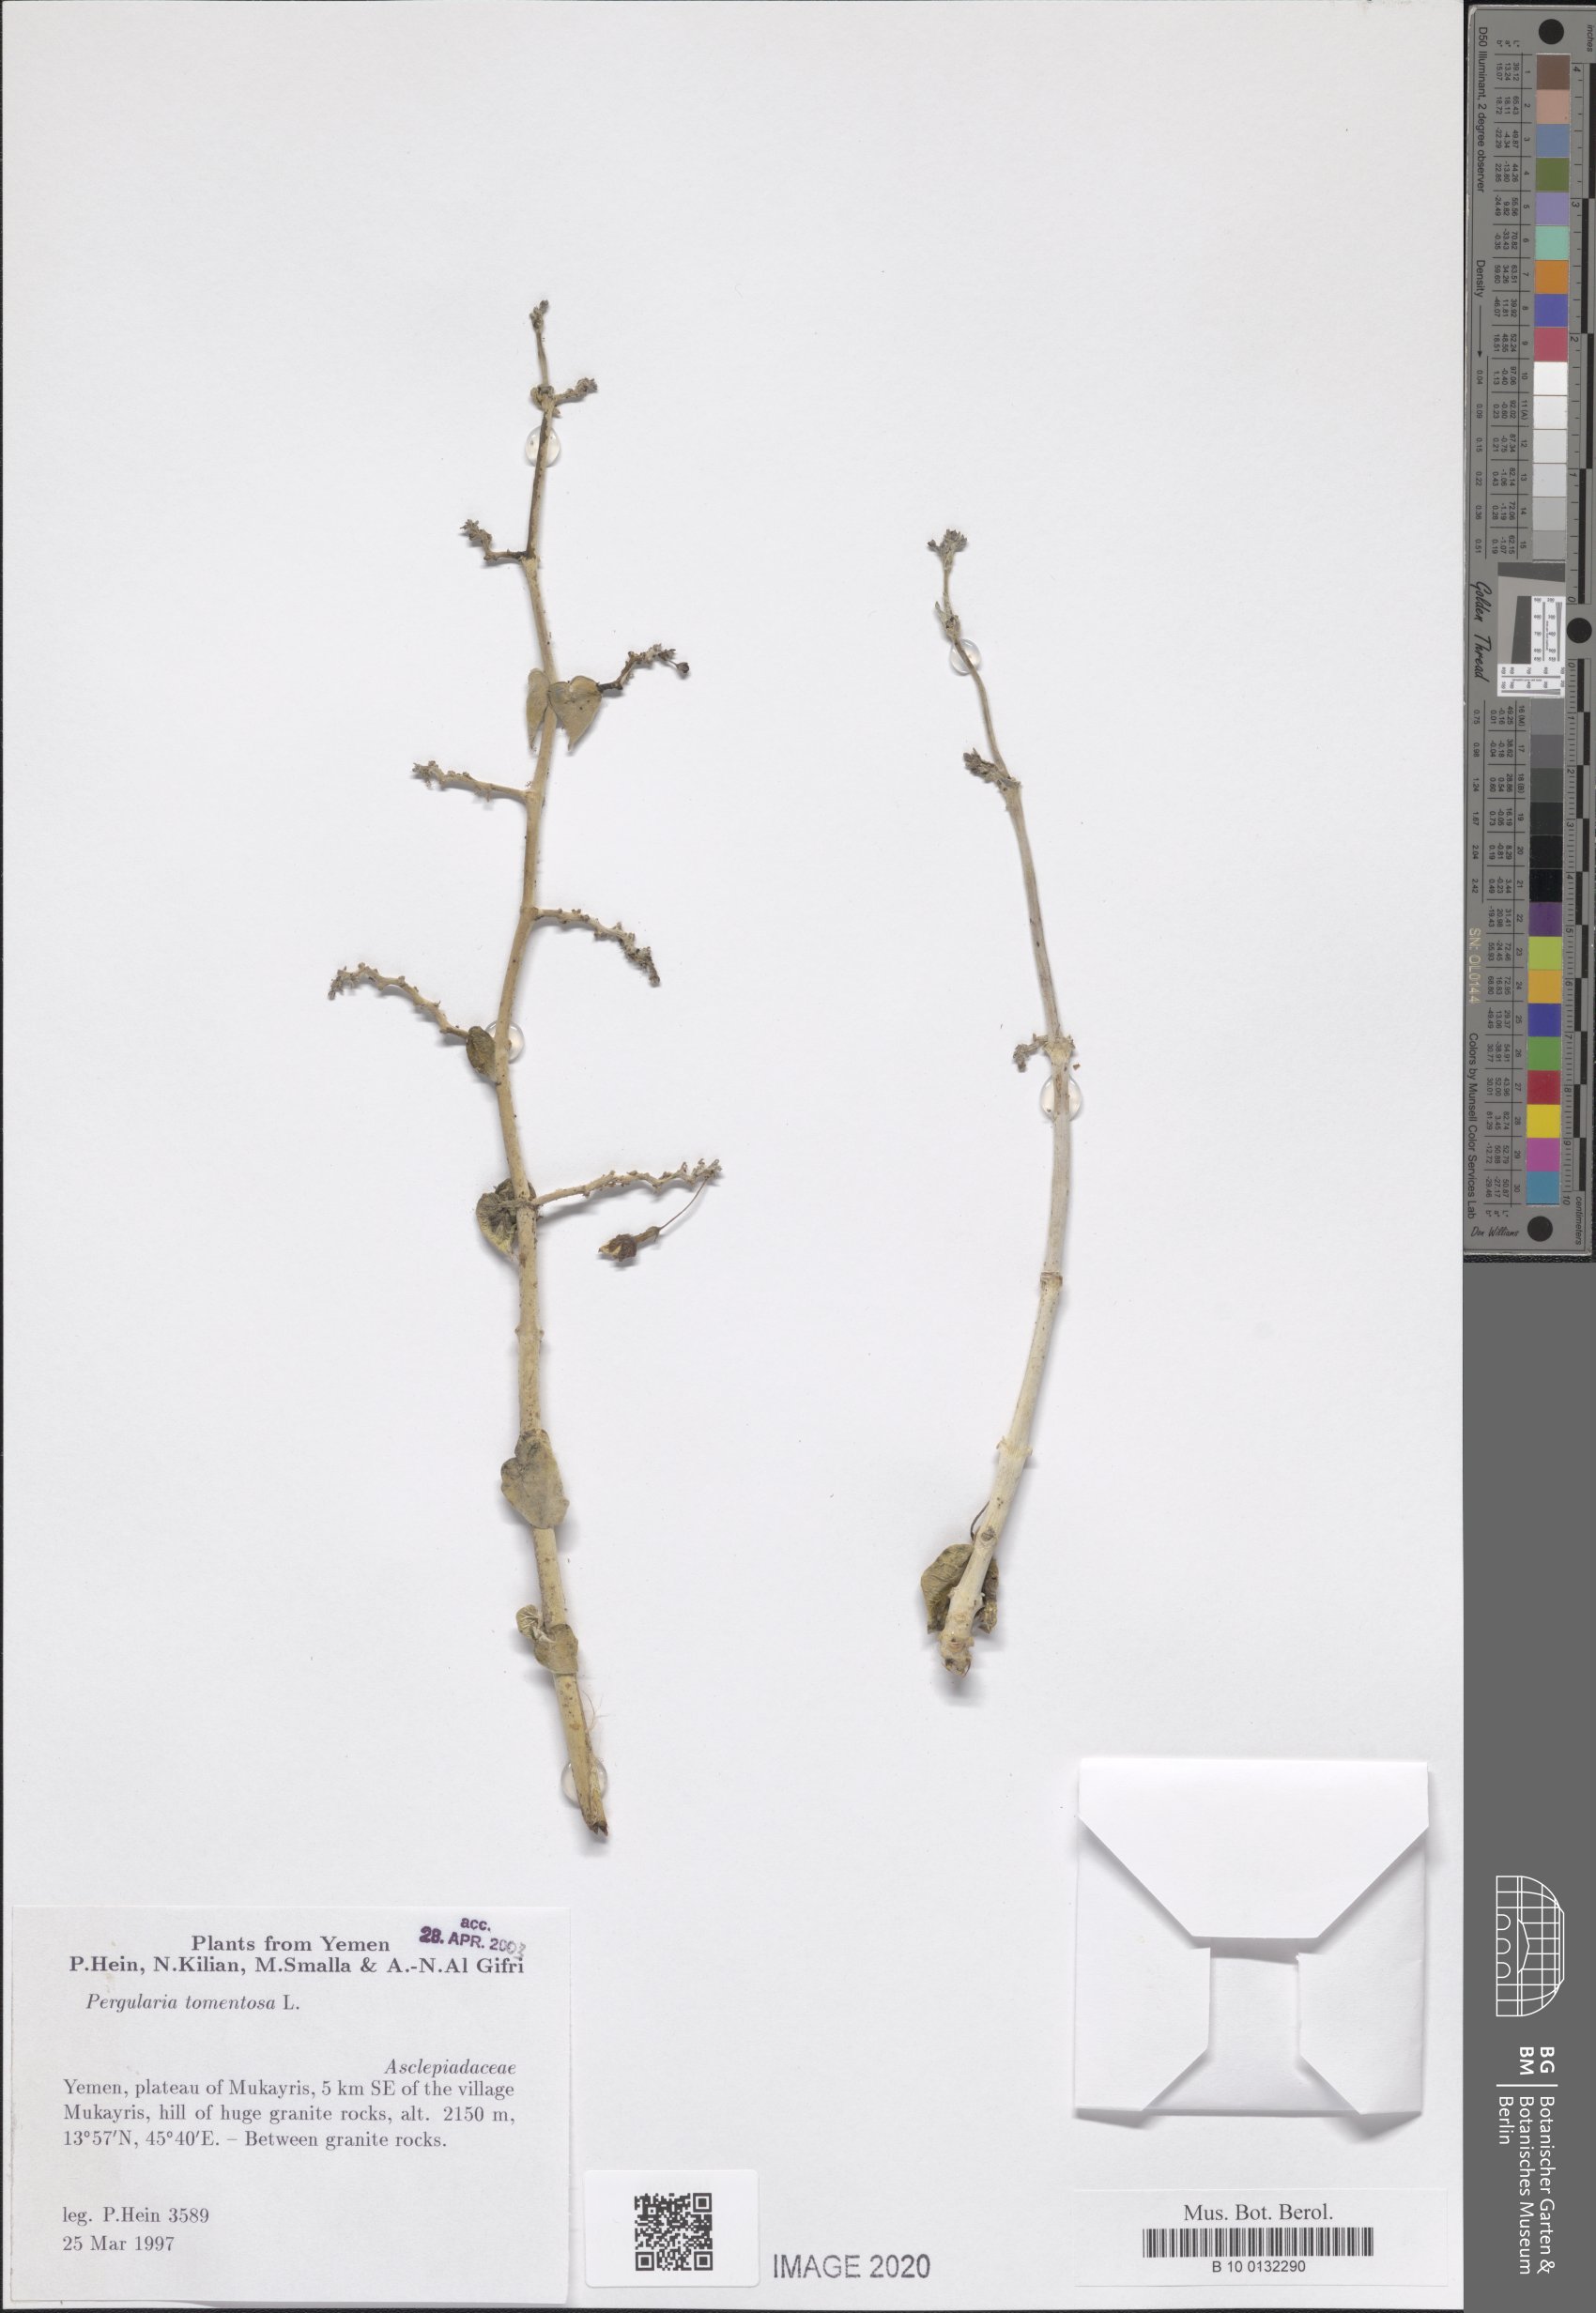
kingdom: Plantae
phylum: Tracheophyta
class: Magnoliopsida
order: Gentianales
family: Apocynaceae
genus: Pergularia
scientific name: Pergularia tomentosa
